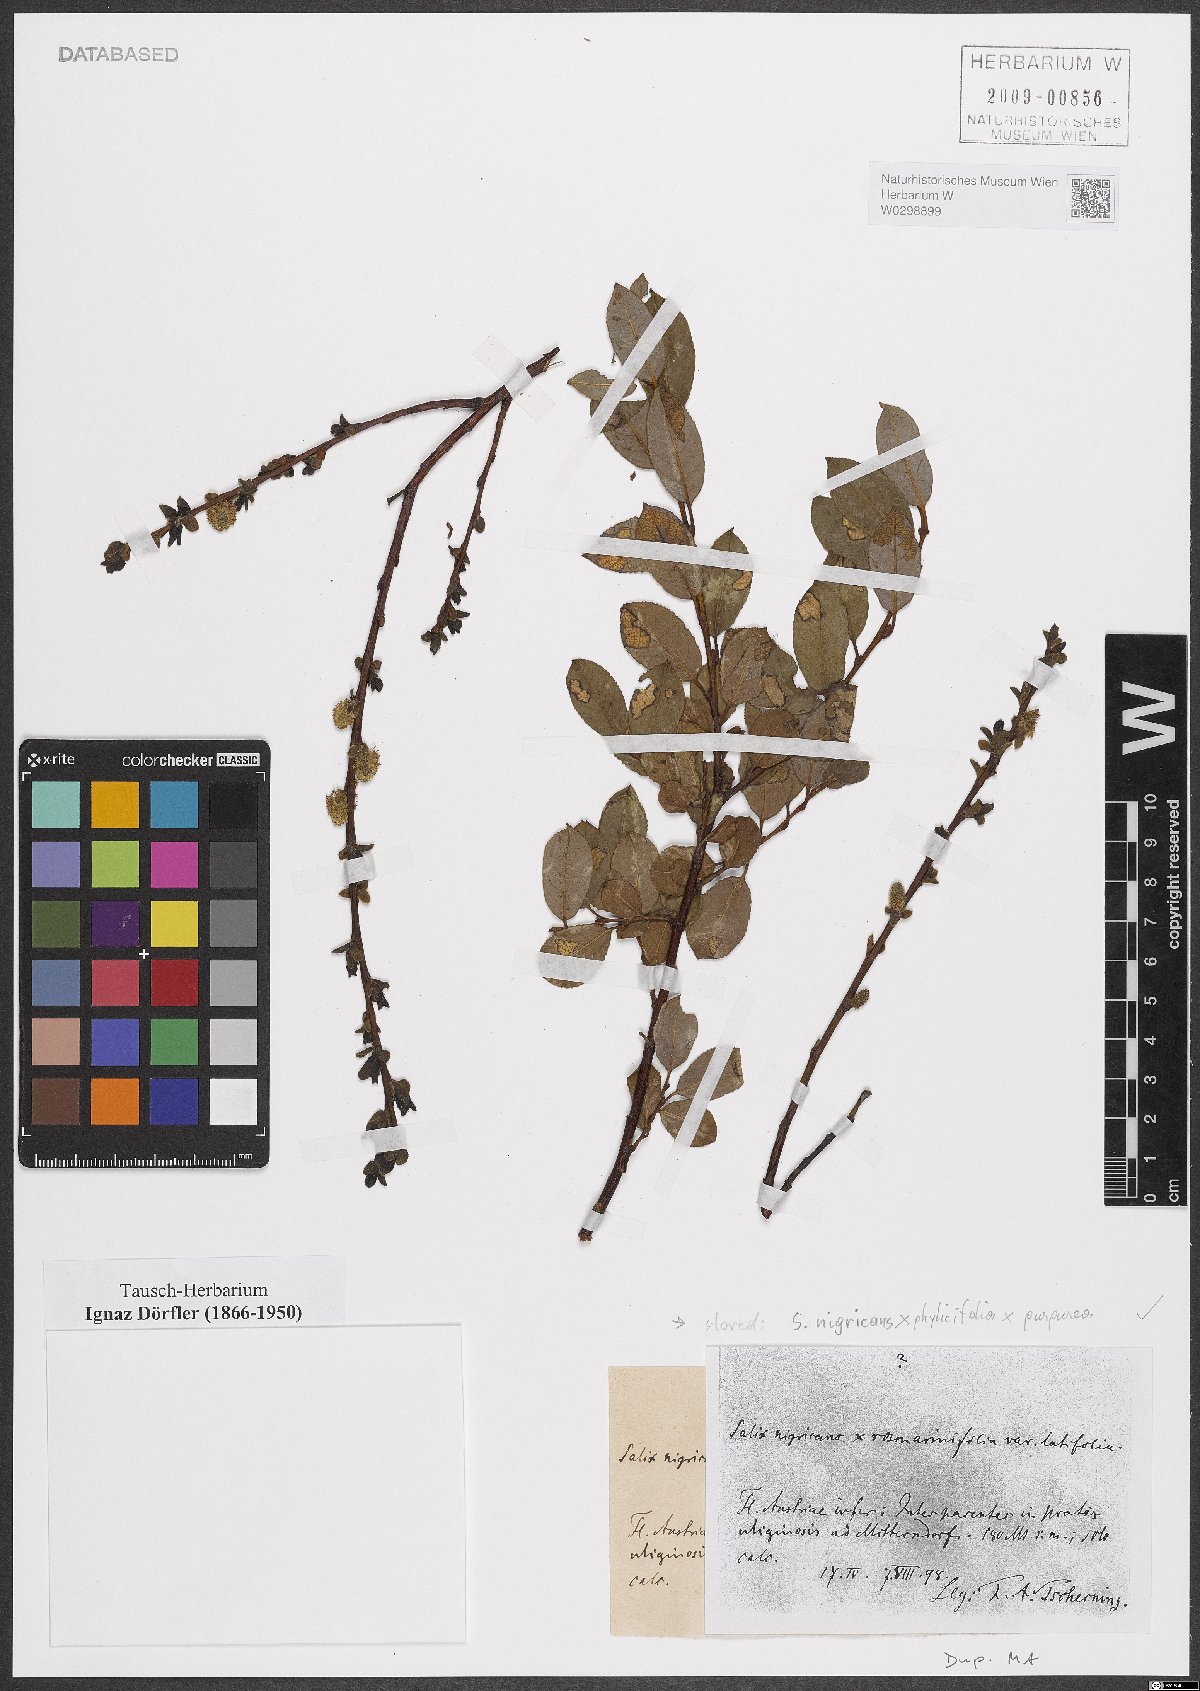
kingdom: Plantae
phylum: Tracheophyta
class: Magnoliopsida
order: Malpighiales
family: Salicaceae
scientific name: Salicaceae
